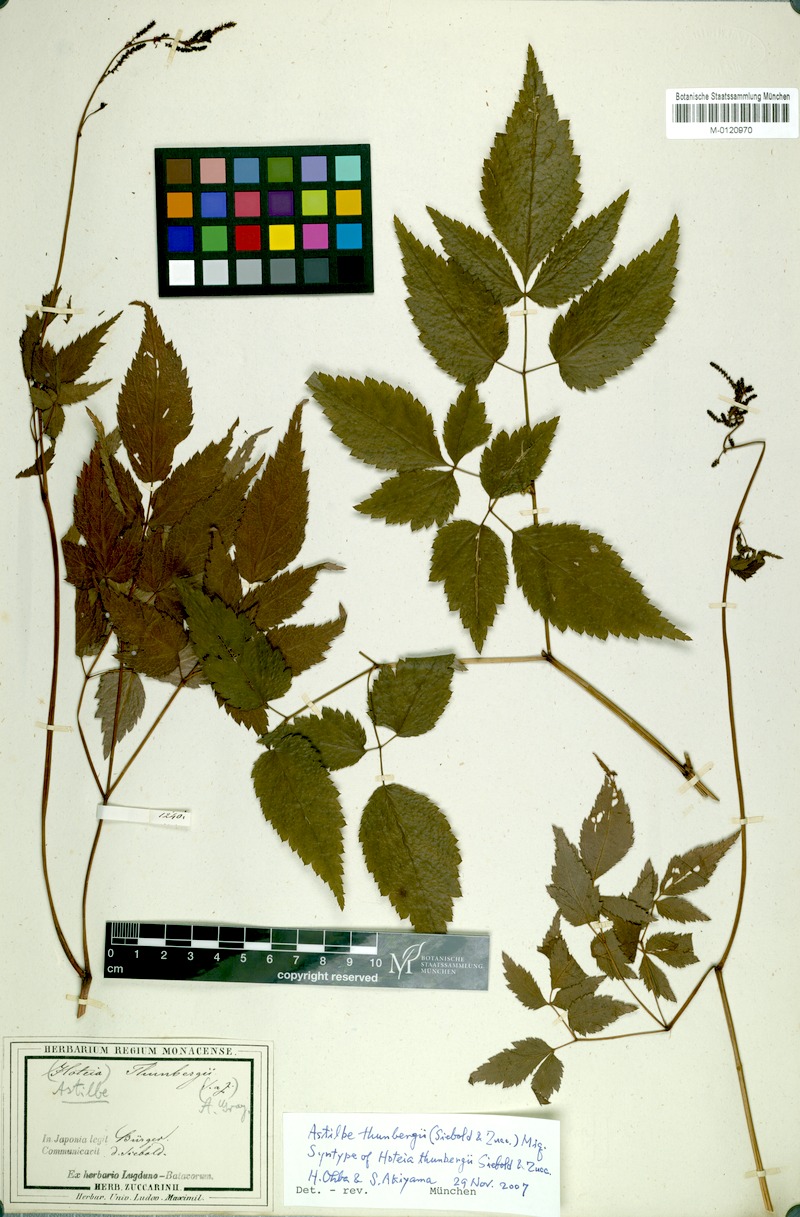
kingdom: Plantae
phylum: Tracheophyta
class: Magnoliopsida
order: Saxifragales
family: Saxifragaceae
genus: Astilbe
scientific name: Astilbe thunbergii
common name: Thunberg's astilbe
